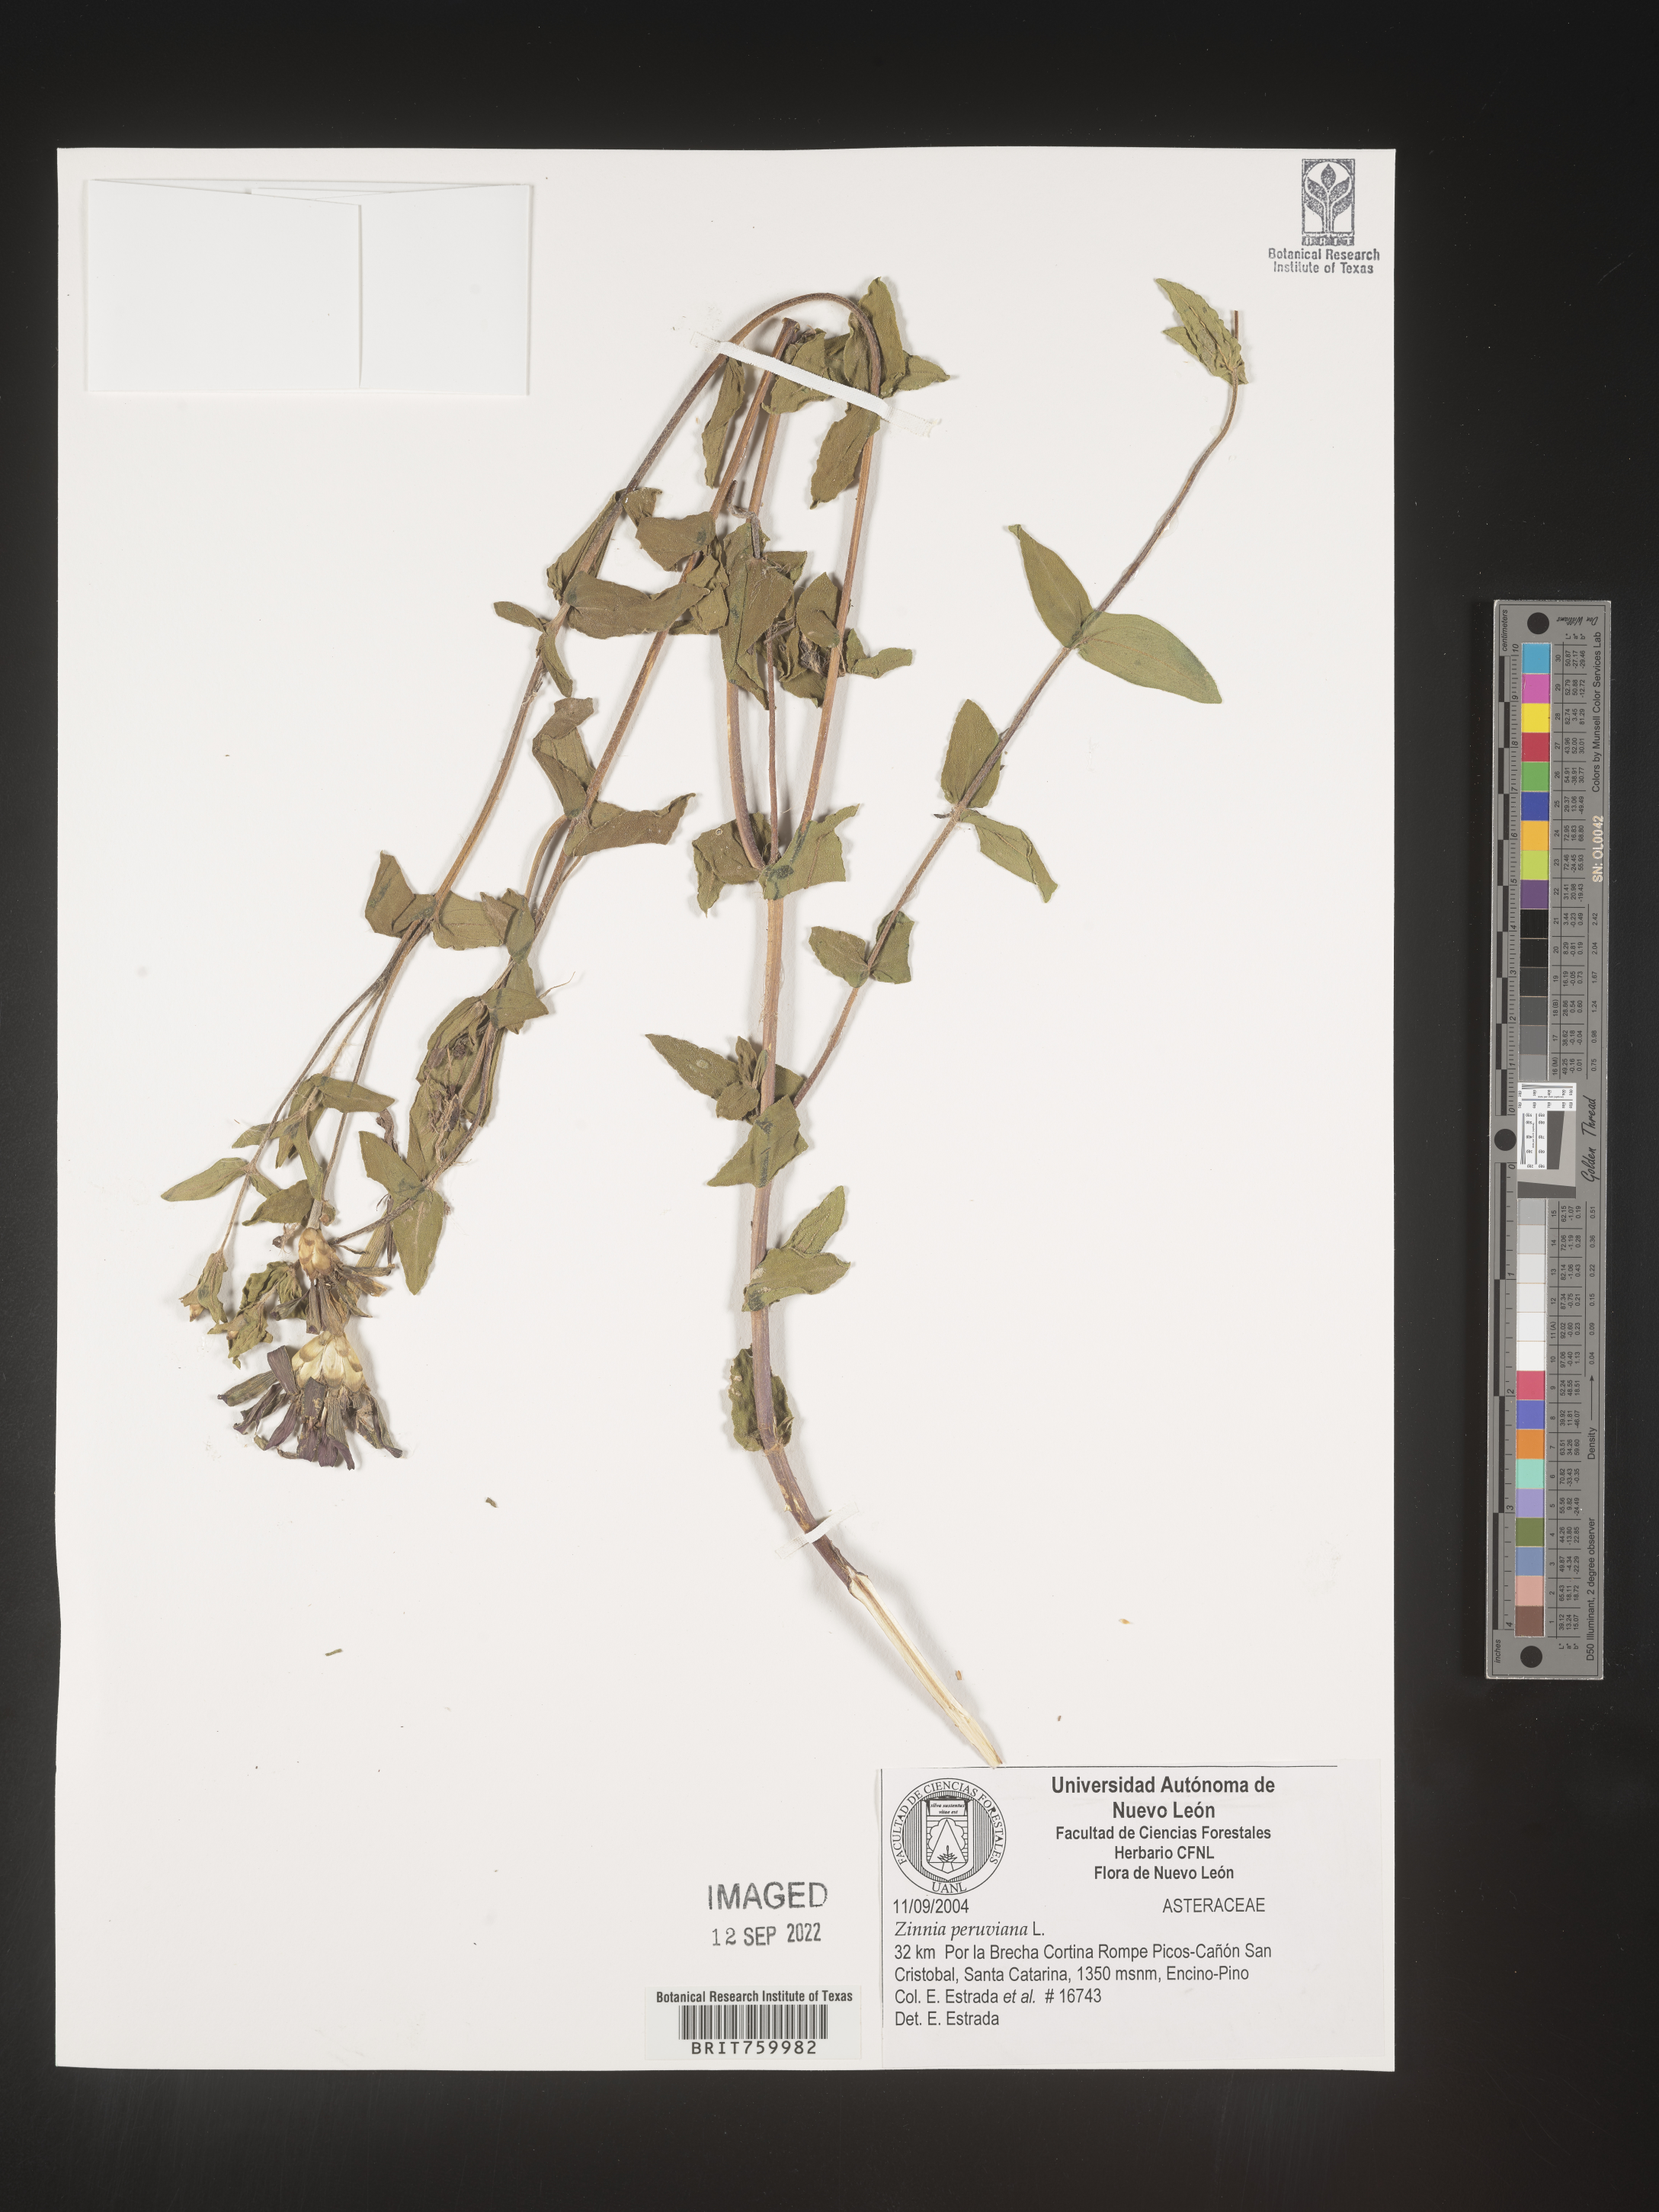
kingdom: Plantae
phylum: Tracheophyta
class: Magnoliopsida
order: Asterales
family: Asteraceae
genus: Zinnia
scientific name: Zinnia peruviana
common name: Peruvian zinnia
